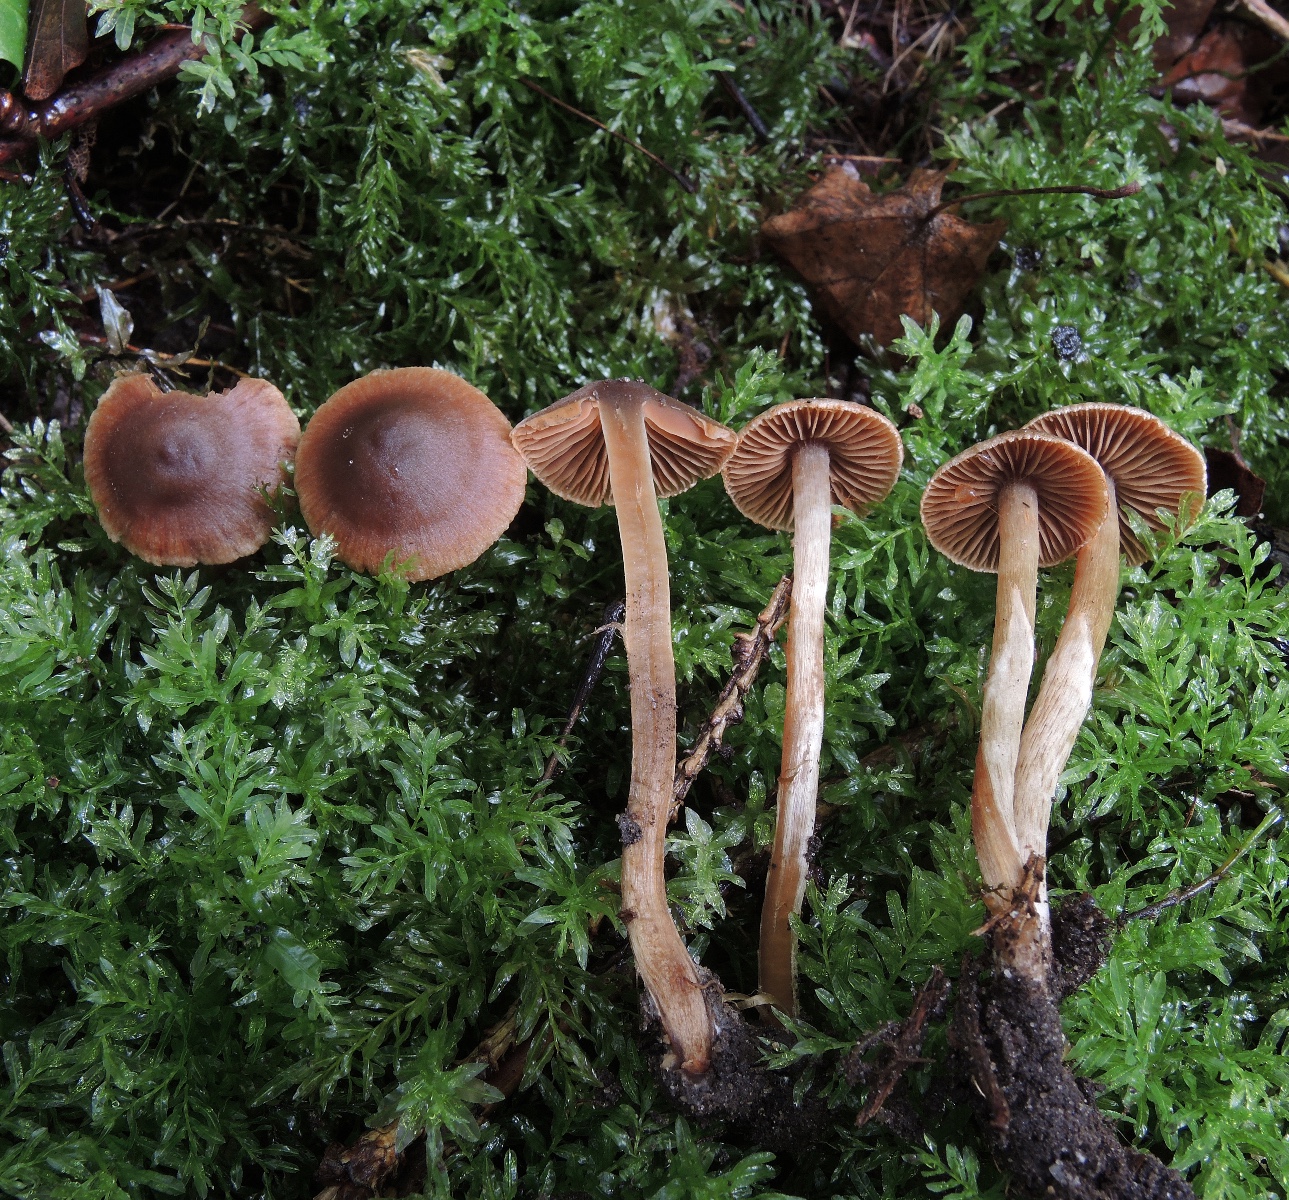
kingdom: Fungi
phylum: Basidiomycota
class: Agaricomycetes
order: Agaricales
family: Cortinariaceae
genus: Cortinarius
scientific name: Cortinarius flexibilifolius
